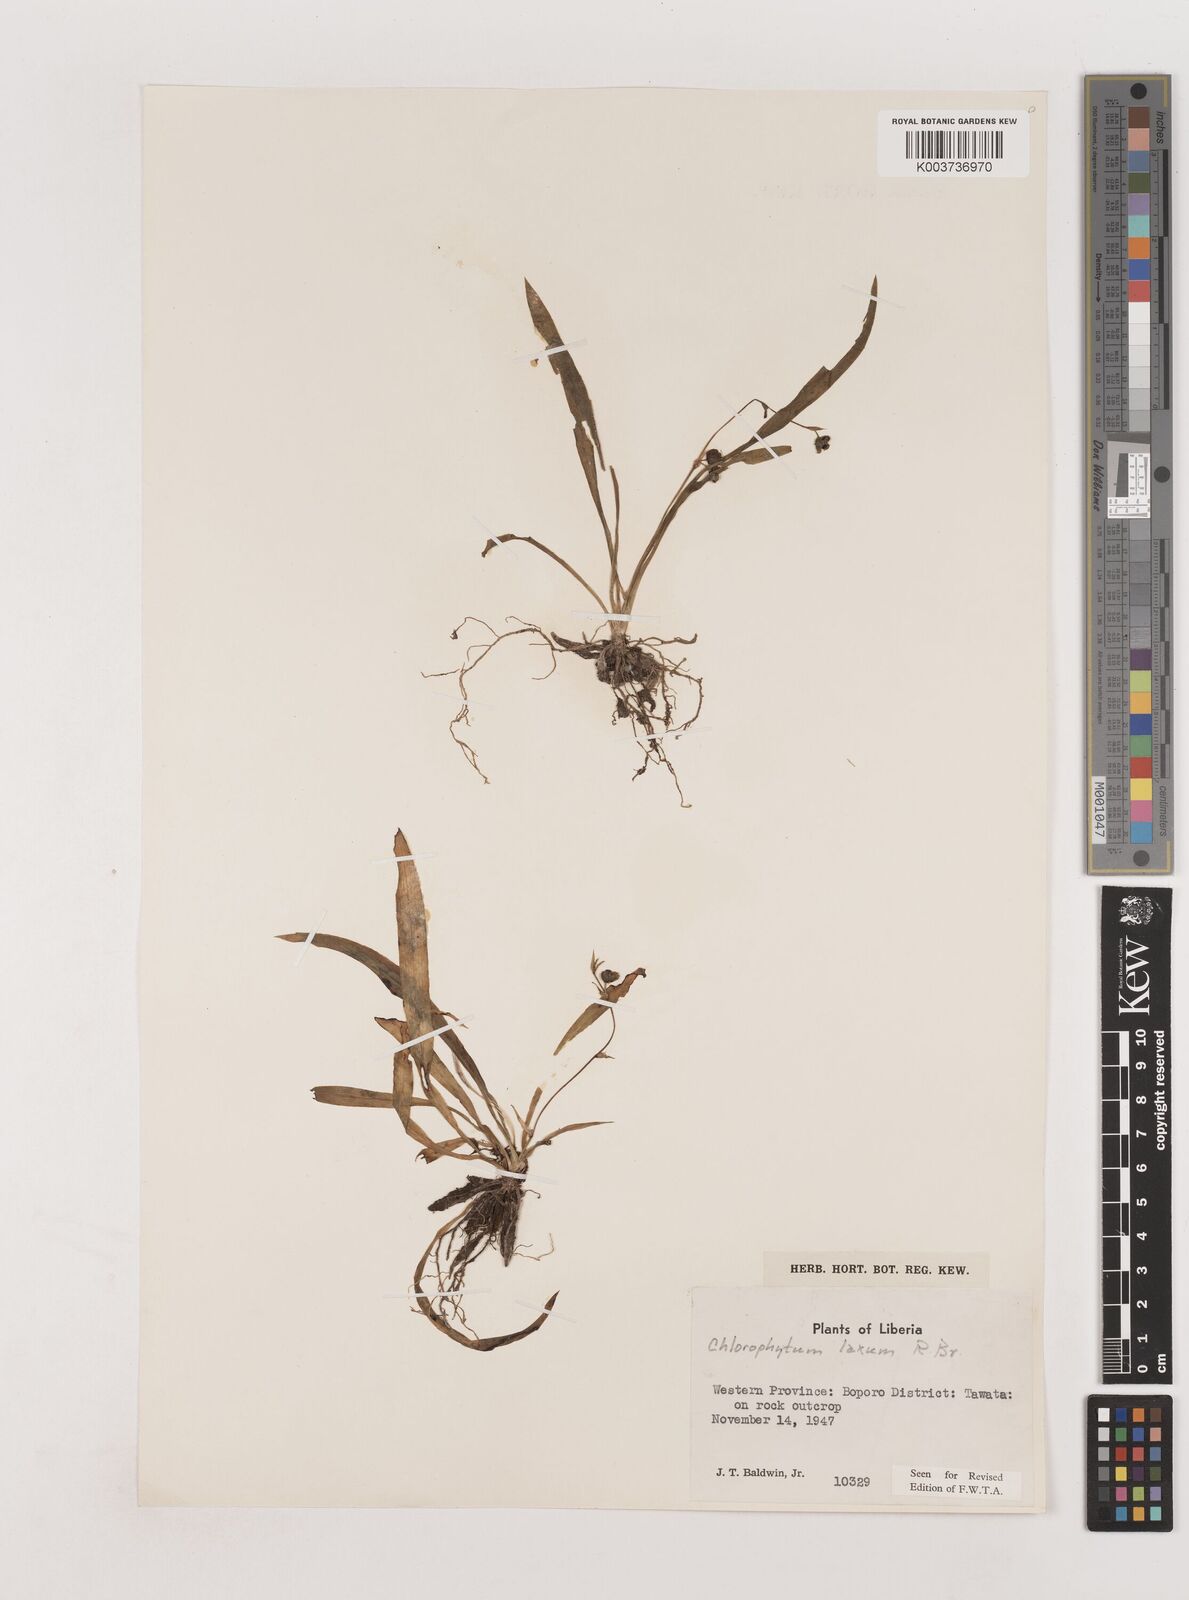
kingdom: Plantae
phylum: Tracheophyta
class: Liliopsida
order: Asparagales
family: Asparagaceae
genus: Chlorophytum
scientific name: Chlorophytum laxum
